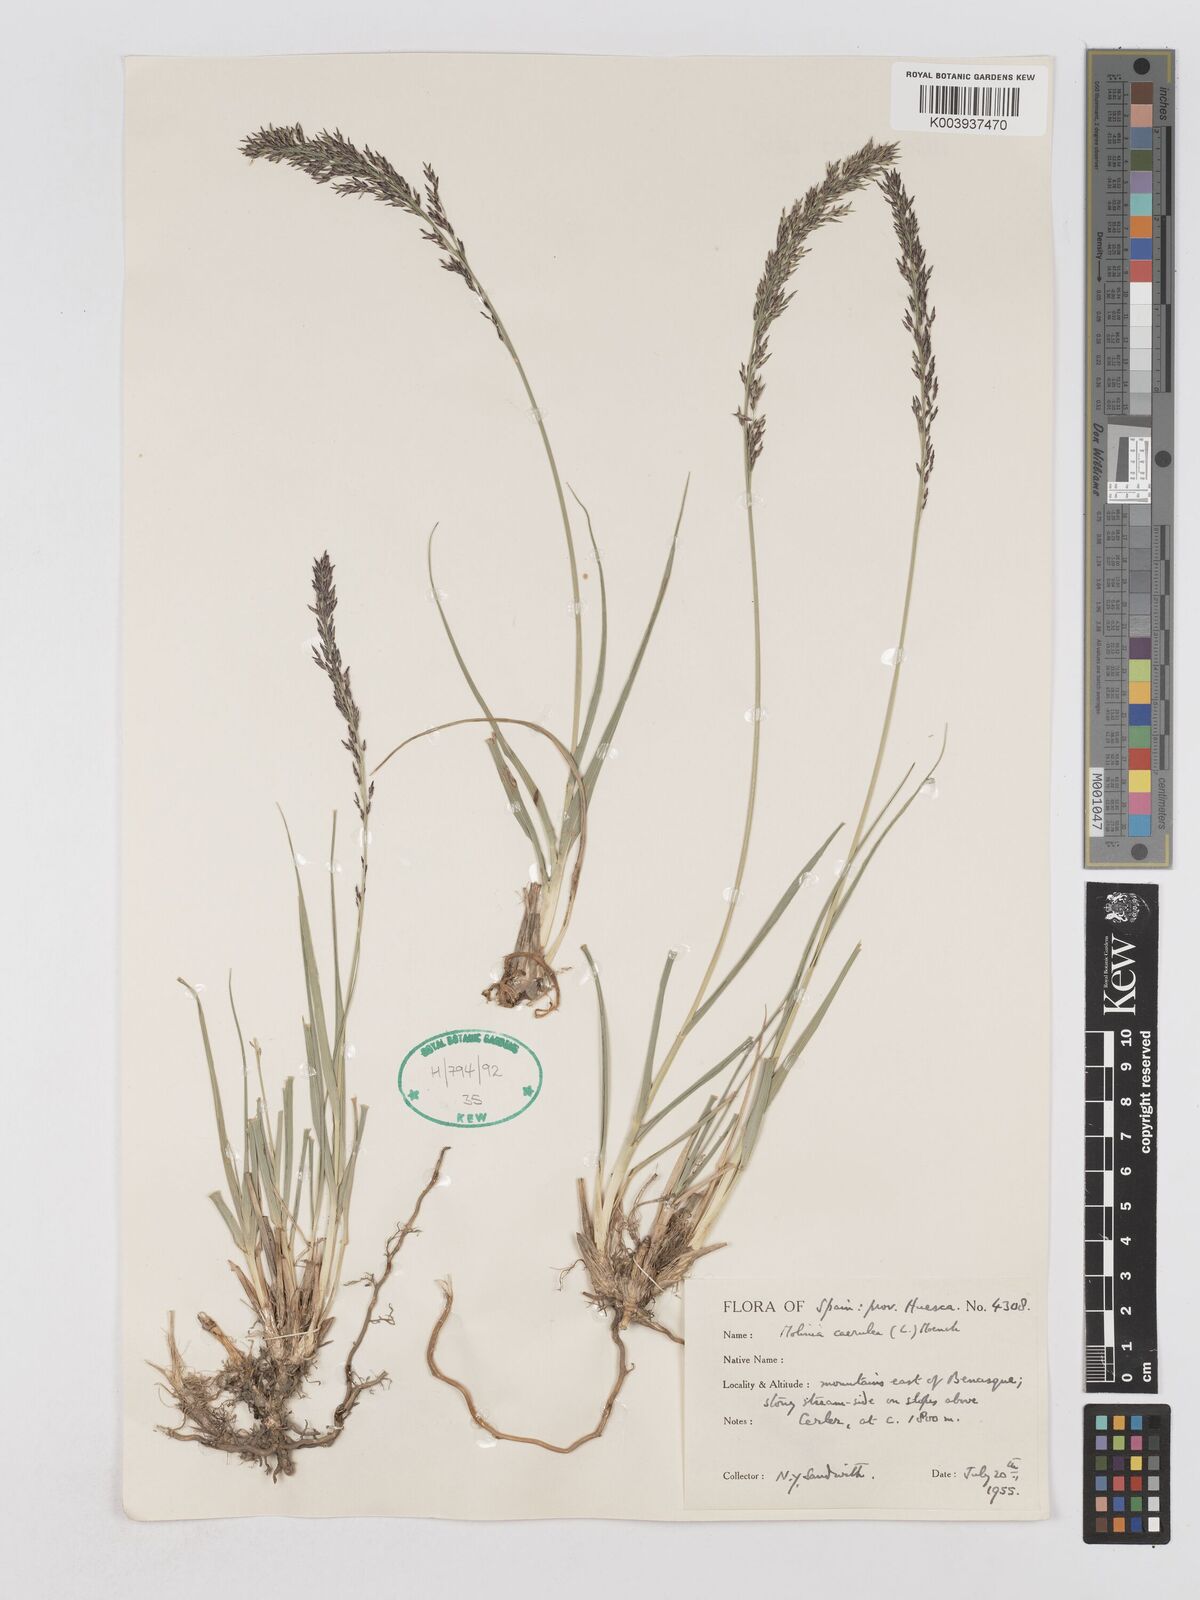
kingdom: Plantae
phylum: Tracheophyta
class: Liliopsida
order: Poales
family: Poaceae
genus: Molinia
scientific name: Molinia caerulea
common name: Purple moor-grass
